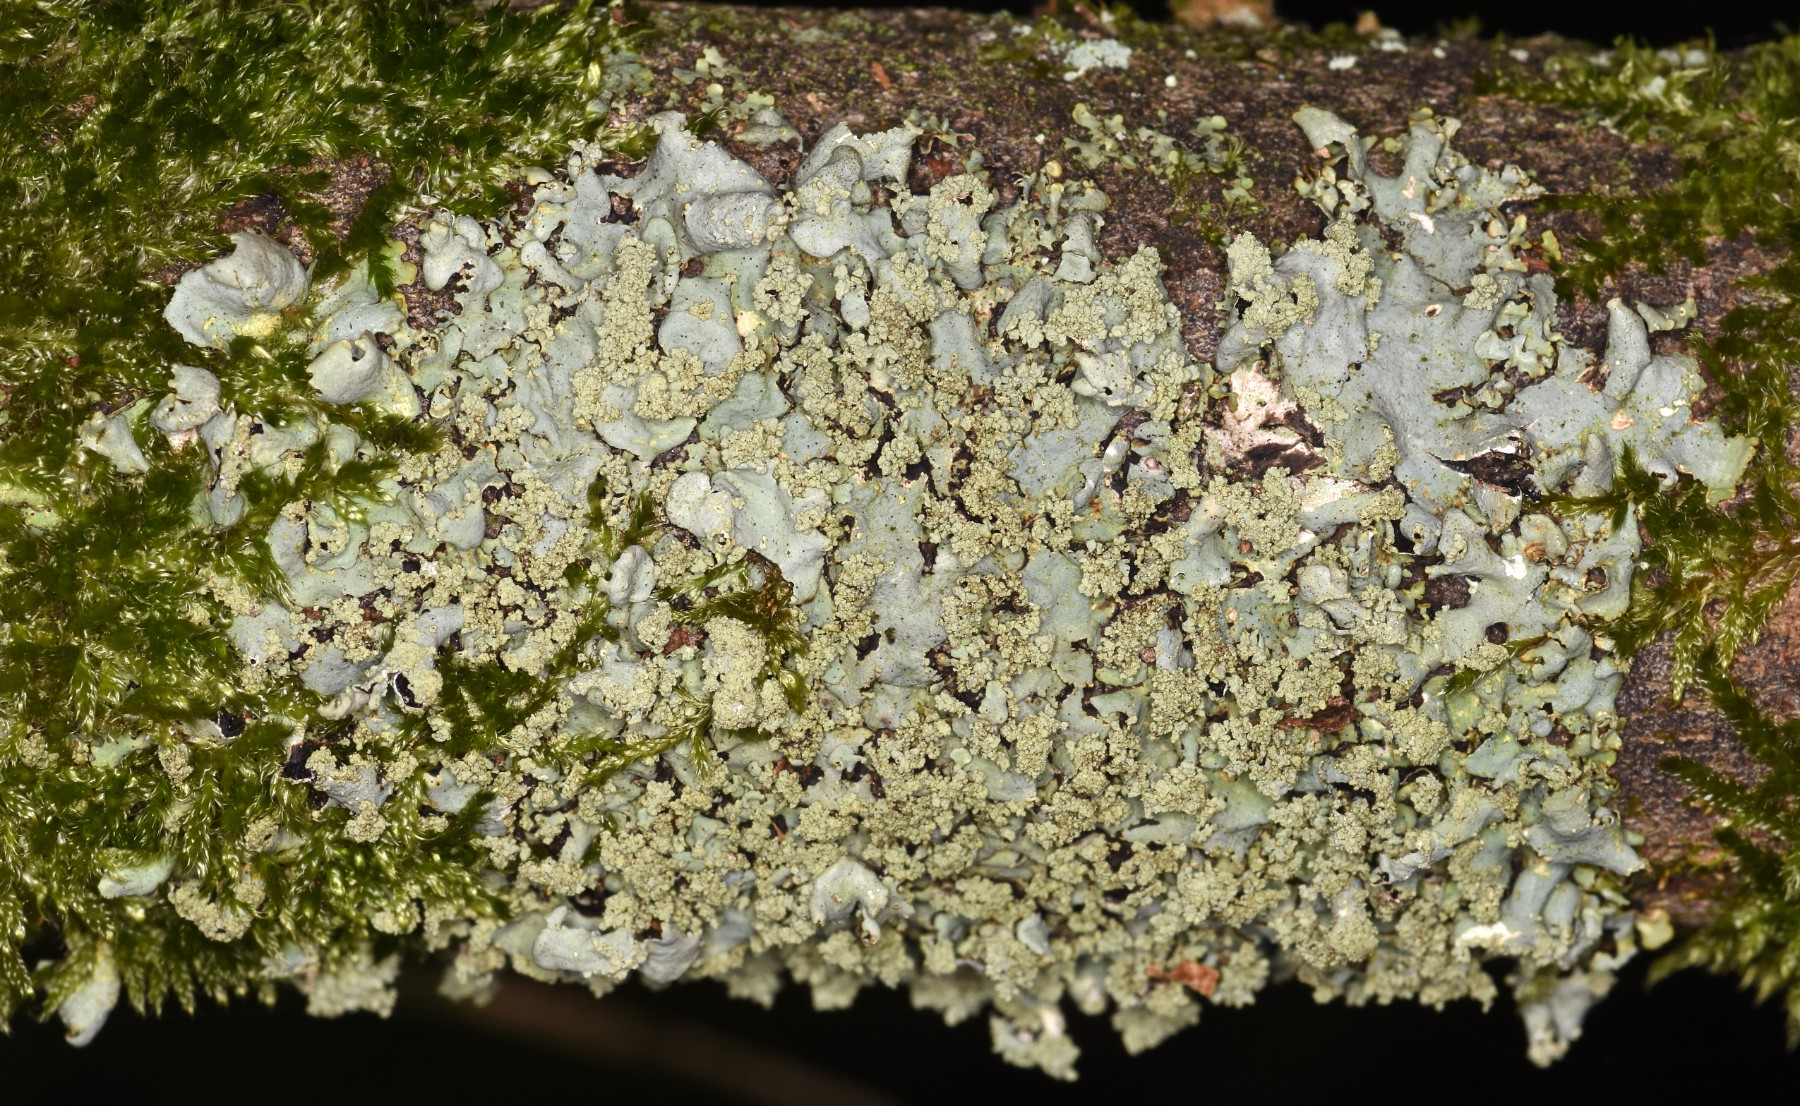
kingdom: Fungi
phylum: Ascomycota
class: Lecanoromycetes
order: Lecanorales
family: Parmeliaceae
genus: Hypotrachyna
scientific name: Hypotrachyna afrorevoluta
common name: kyst-skållav
